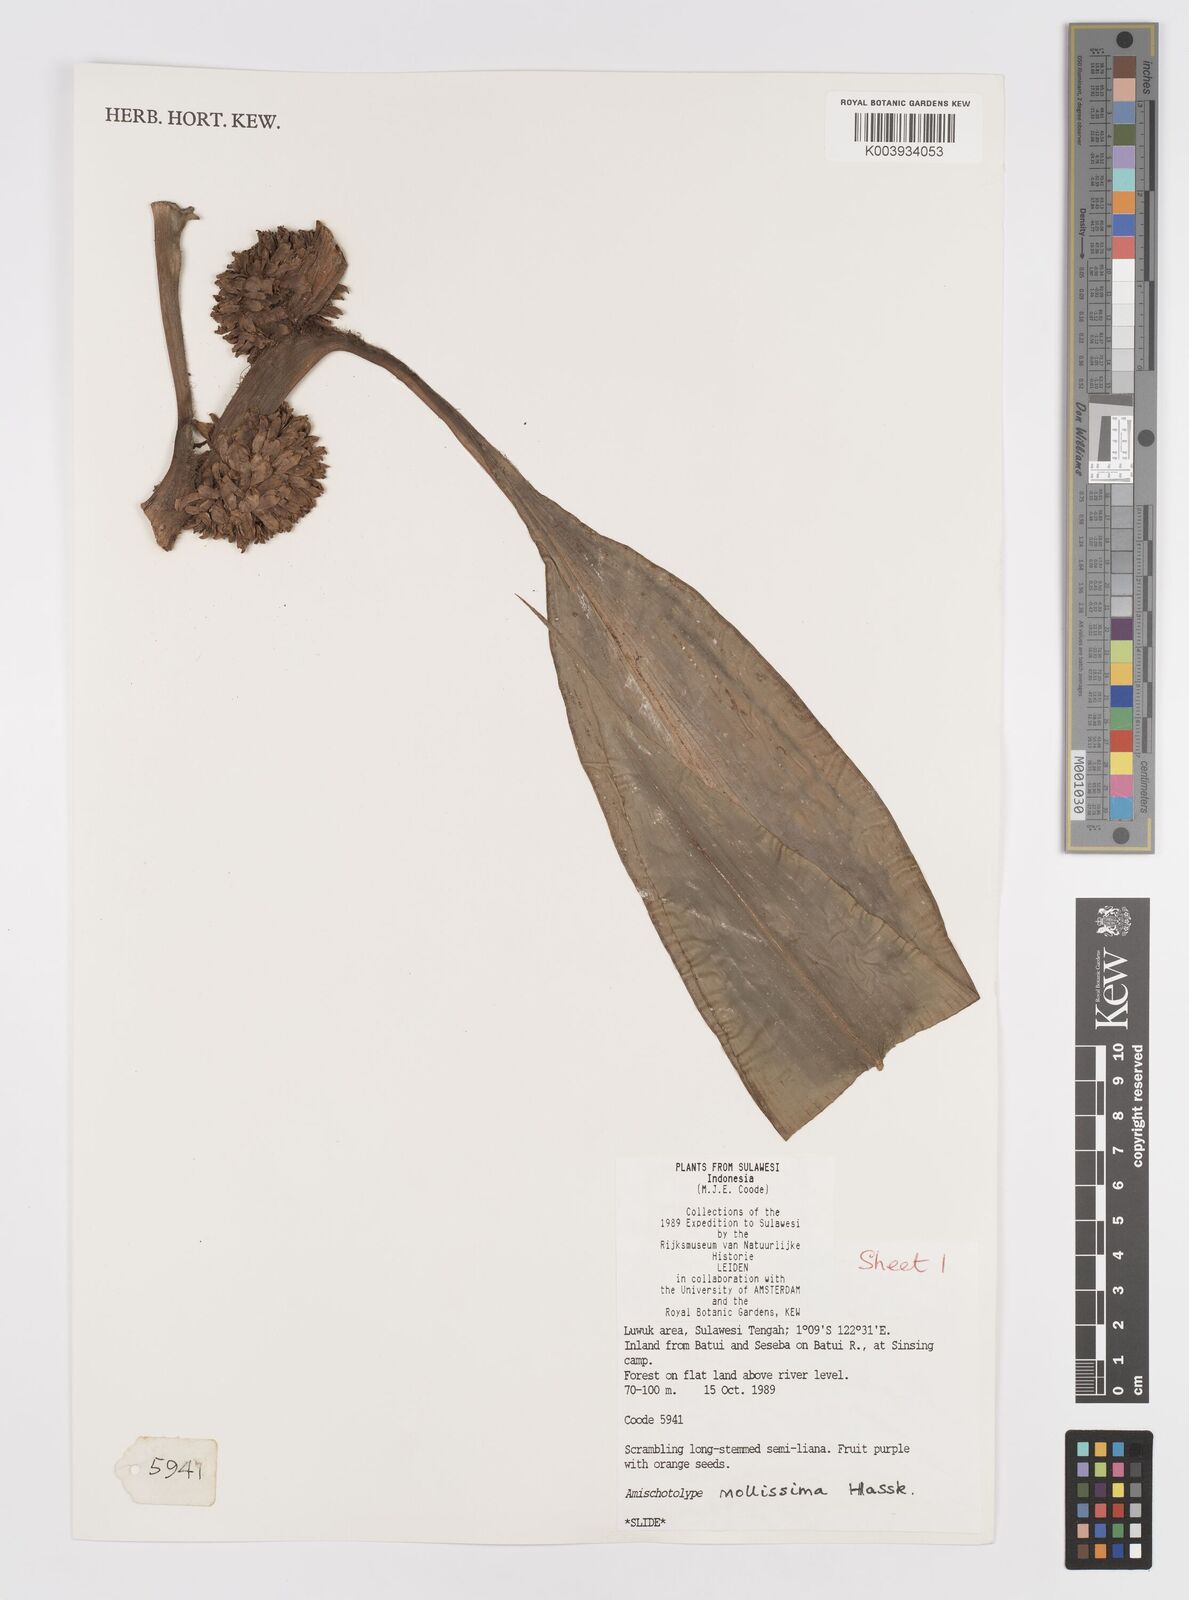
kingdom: Plantae
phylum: Tracheophyta
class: Liliopsida
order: Commelinales
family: Commelinaceae
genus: Amischotolype
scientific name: Amischotolype mollissima
